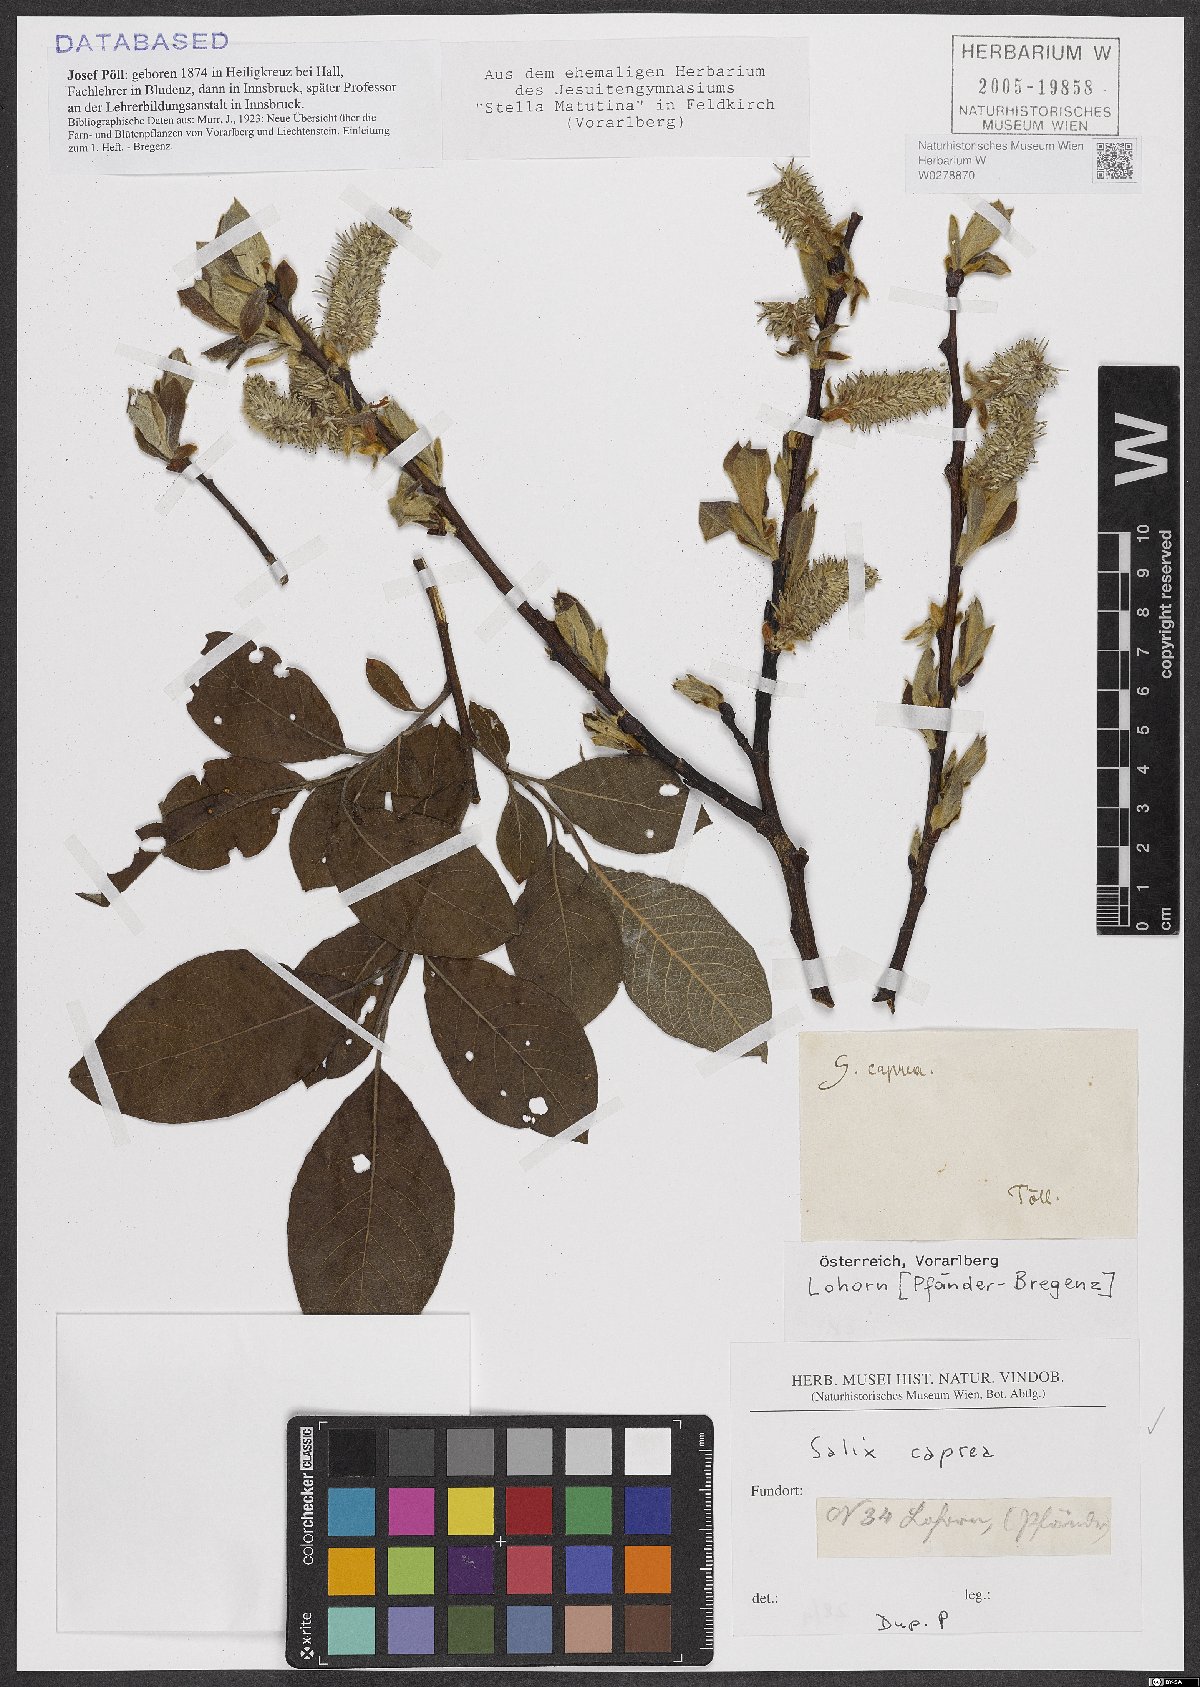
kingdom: Plantae
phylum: Tracheophyta
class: Magnoliopsida
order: Malpighiales
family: Salicaceae
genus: Salix
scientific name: Salix caprea
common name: Goat willow
